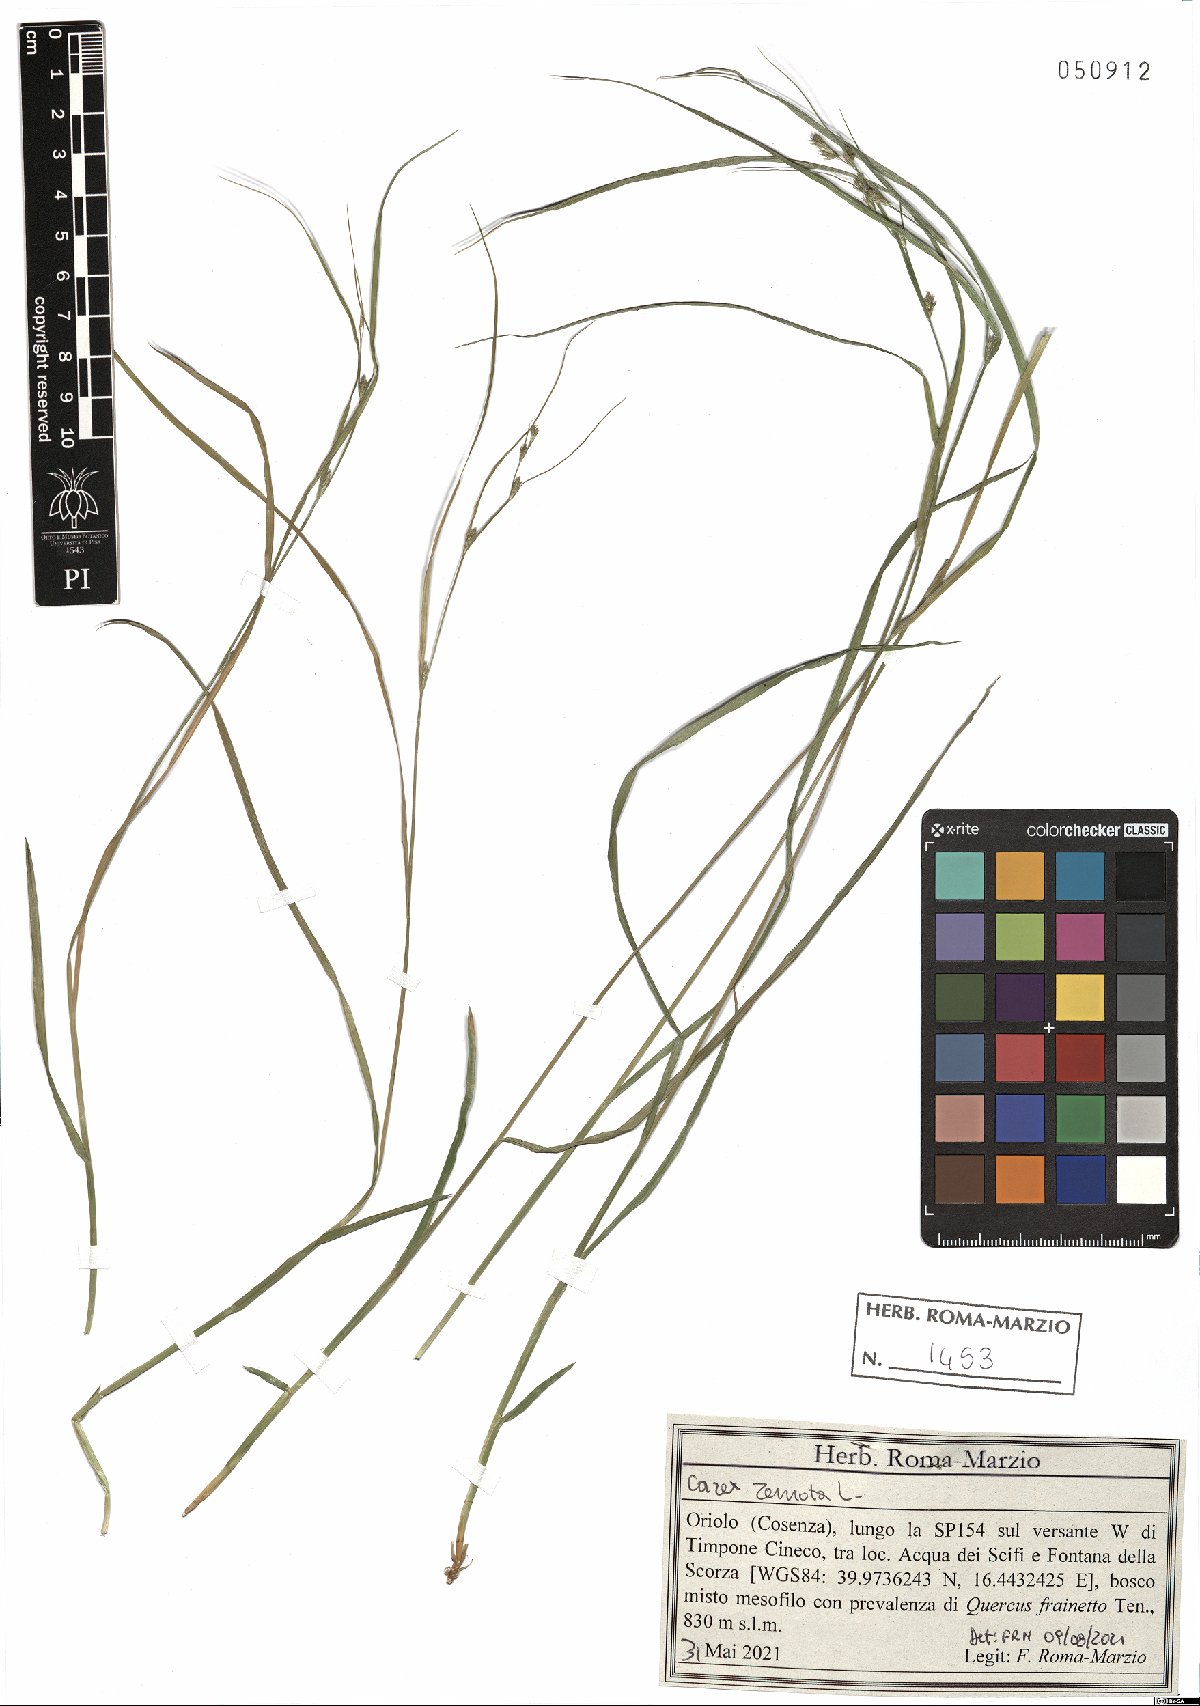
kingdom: Plantae
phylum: Tracheophyta
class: Liliopsida
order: Poales
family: Cyperaceae
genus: Carex
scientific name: Carex remota
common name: Remote sedge
